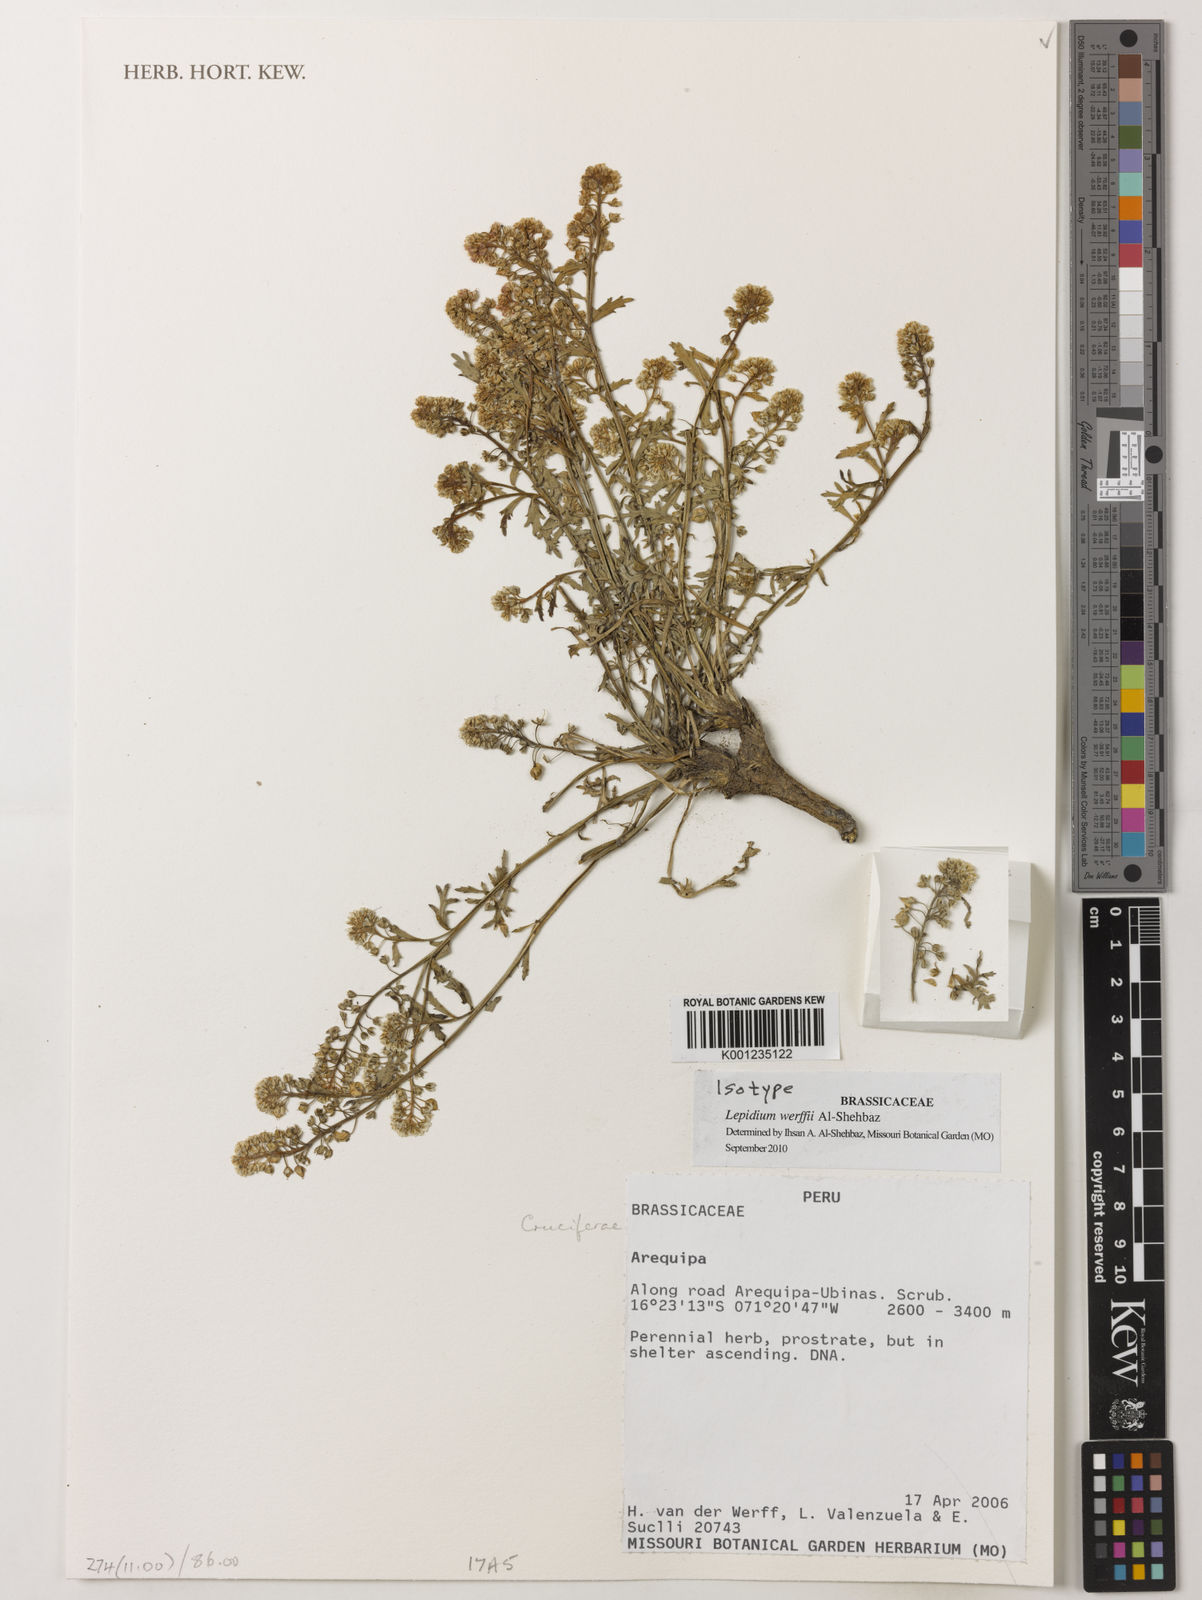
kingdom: Plantae
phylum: Tracheophyta
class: Magnoliopsida
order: Brassicales
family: Brassicaceae
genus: Lepidium
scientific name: Lepidium werffii
